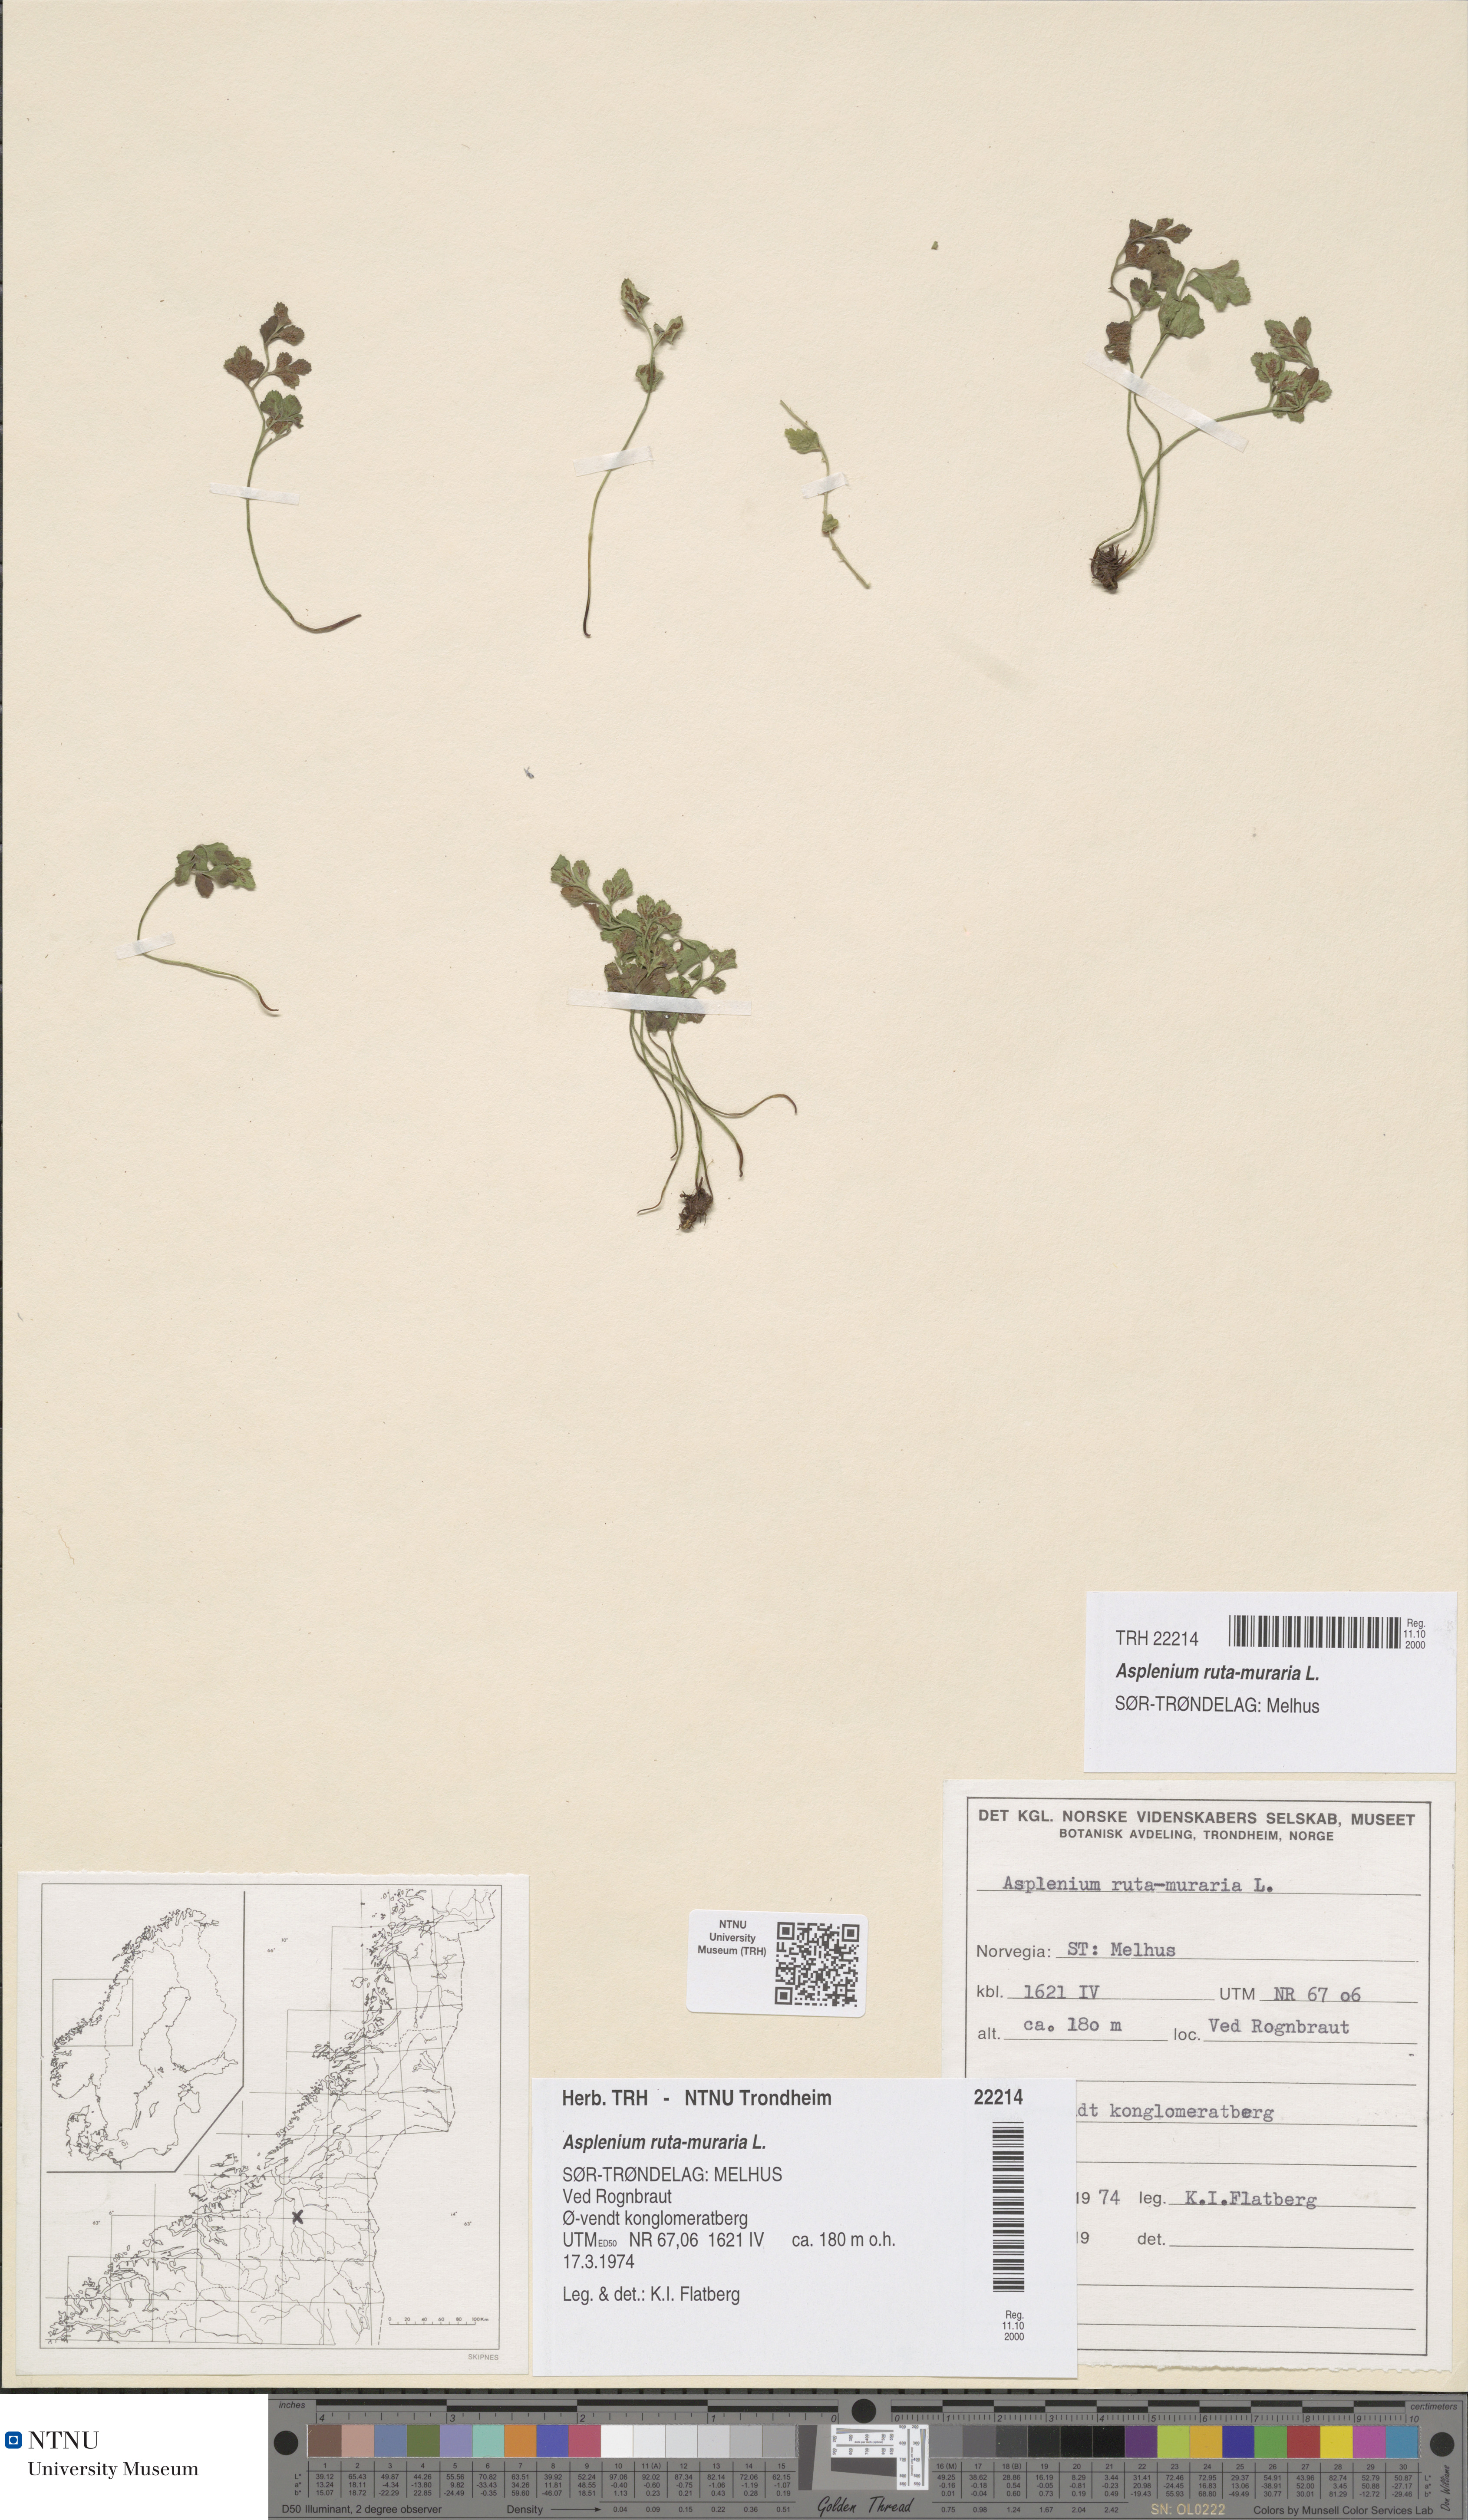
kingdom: Plantae
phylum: Tracheophyta
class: Polypodiopsida
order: Polypodiales
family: Aspleniaceae
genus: Asplenium
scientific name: Asplenium ruta-muraria
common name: Wall-rue
